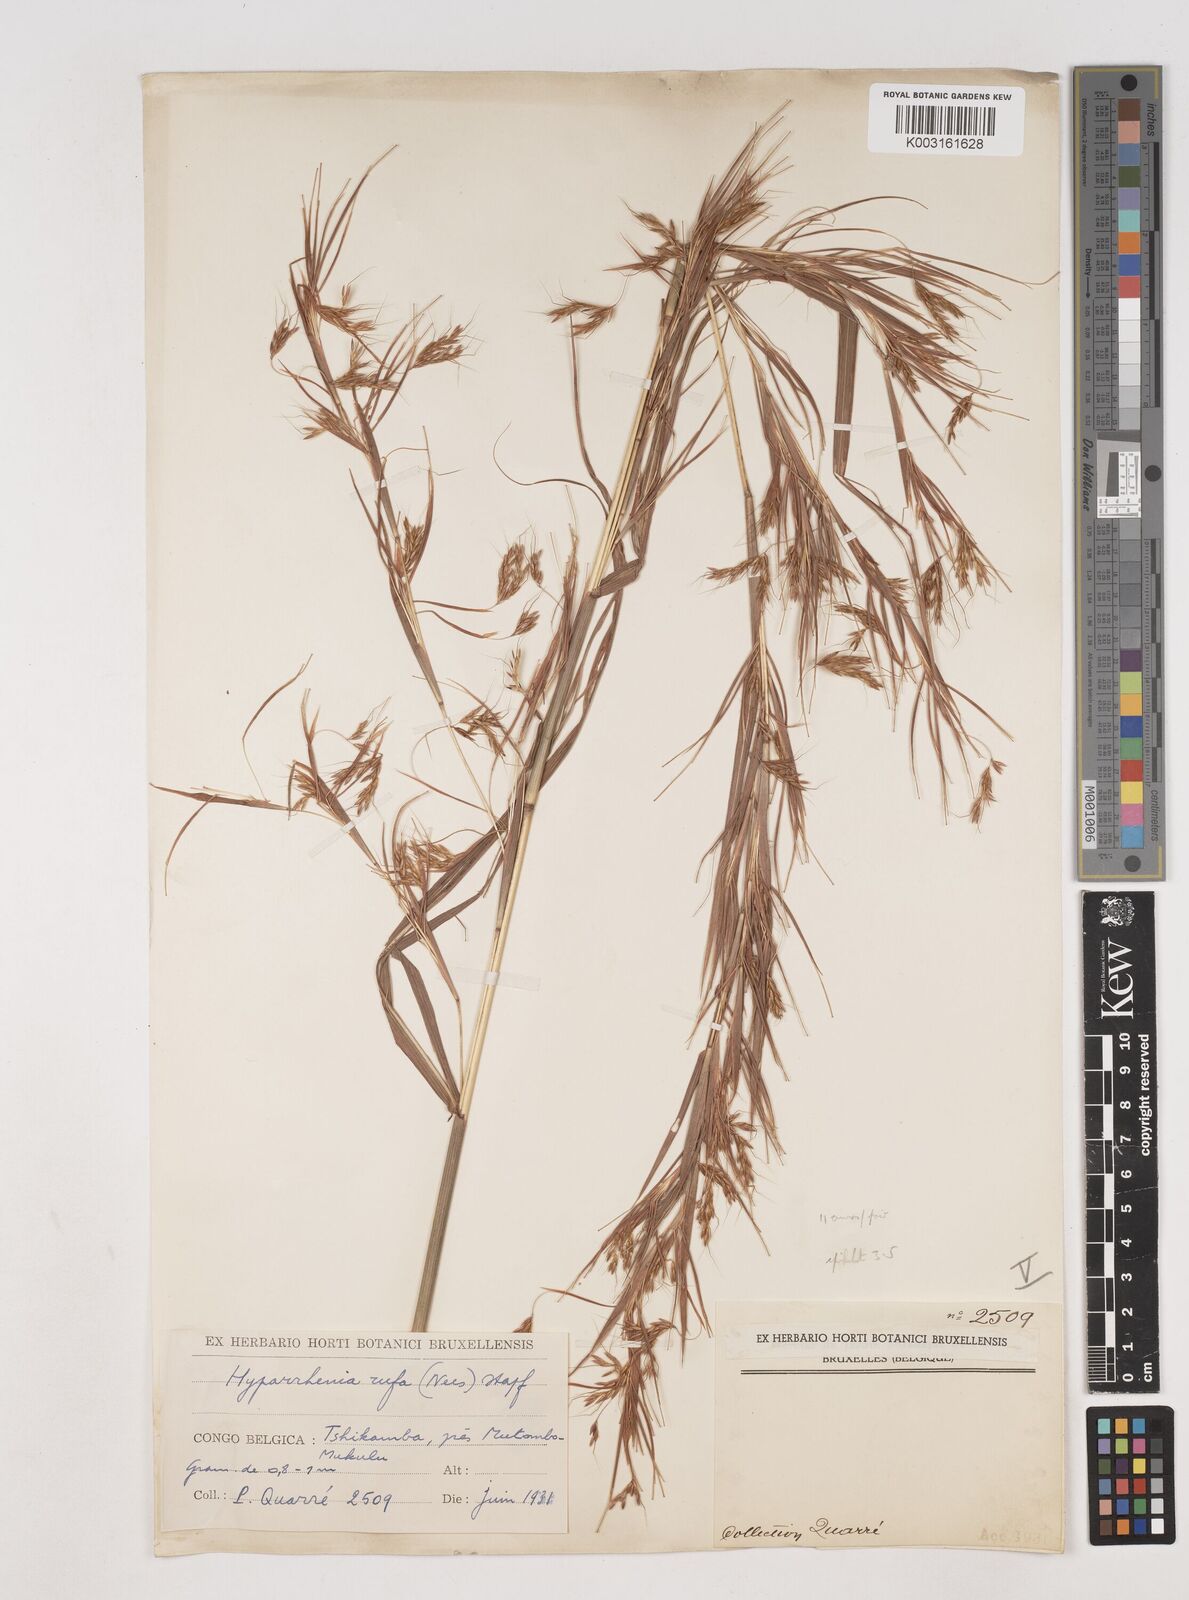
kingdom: Plantae
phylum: Tracheophyta
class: Liliopsida
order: Poales
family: Poaceae
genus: Hyparrhenia
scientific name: Hyparrhenia rufa
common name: Jaraguagrass
